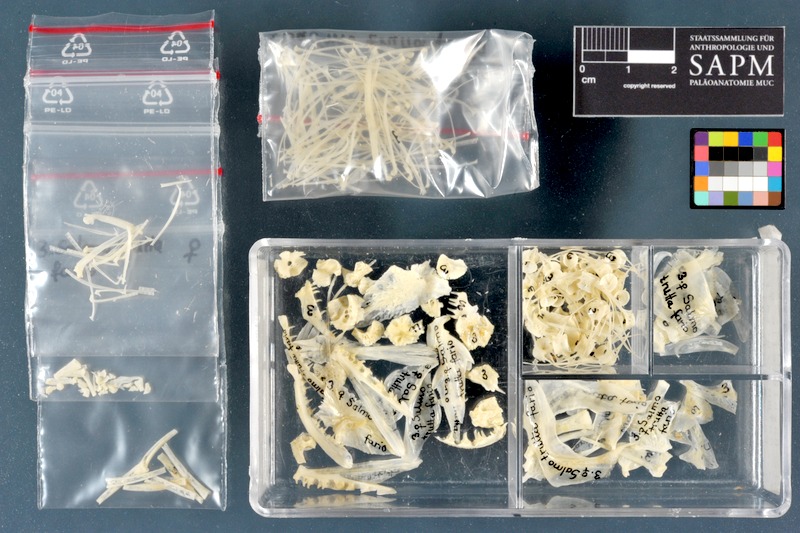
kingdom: Animalia
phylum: Chordata
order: Salmoniformes
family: Salmonidae
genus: Salmo
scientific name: Salmo trutta
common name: Brown trout
